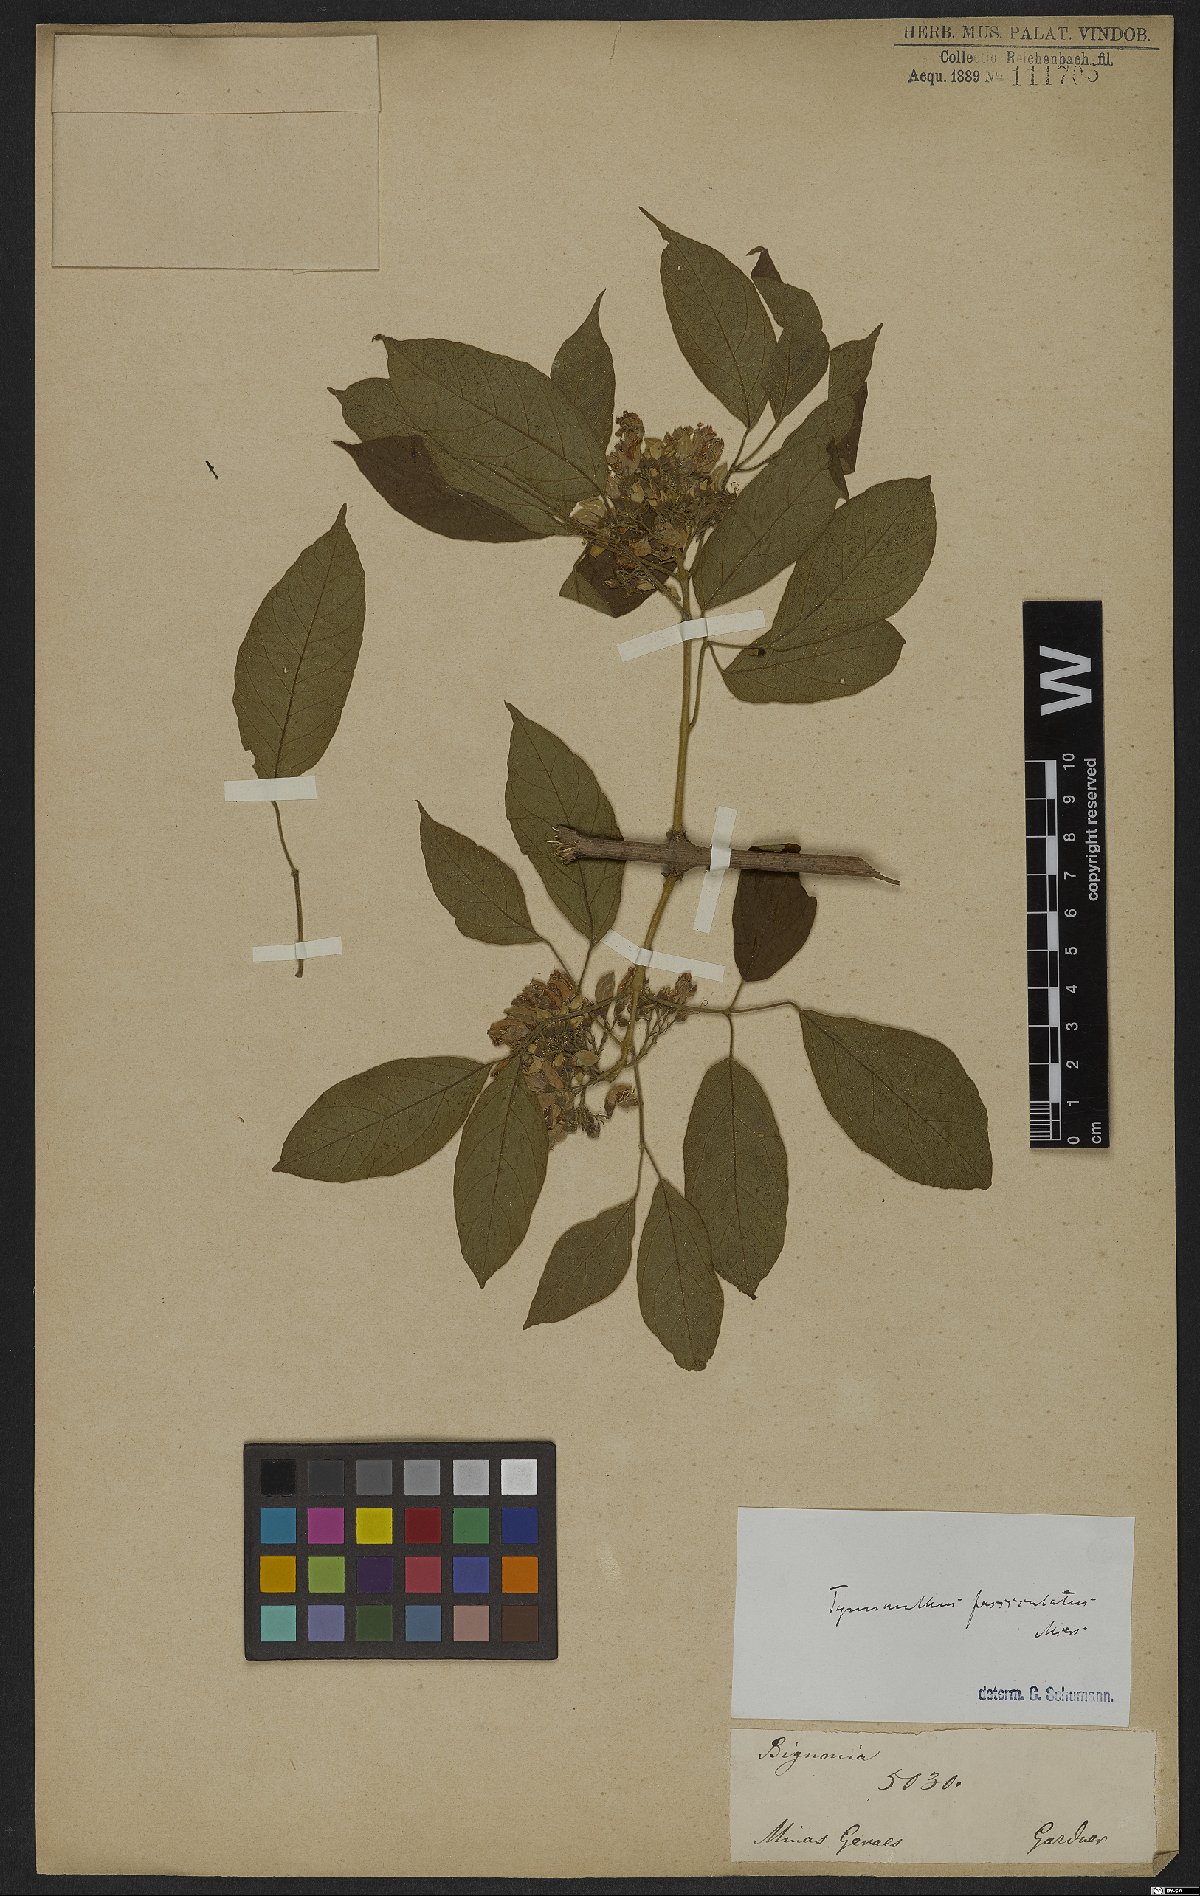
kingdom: Plantae
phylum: Tracheophyta
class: Magnoliopsida
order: Lamiales
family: Bignoniaceae
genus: Tynanthus
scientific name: Tynanthus fasciculatus
